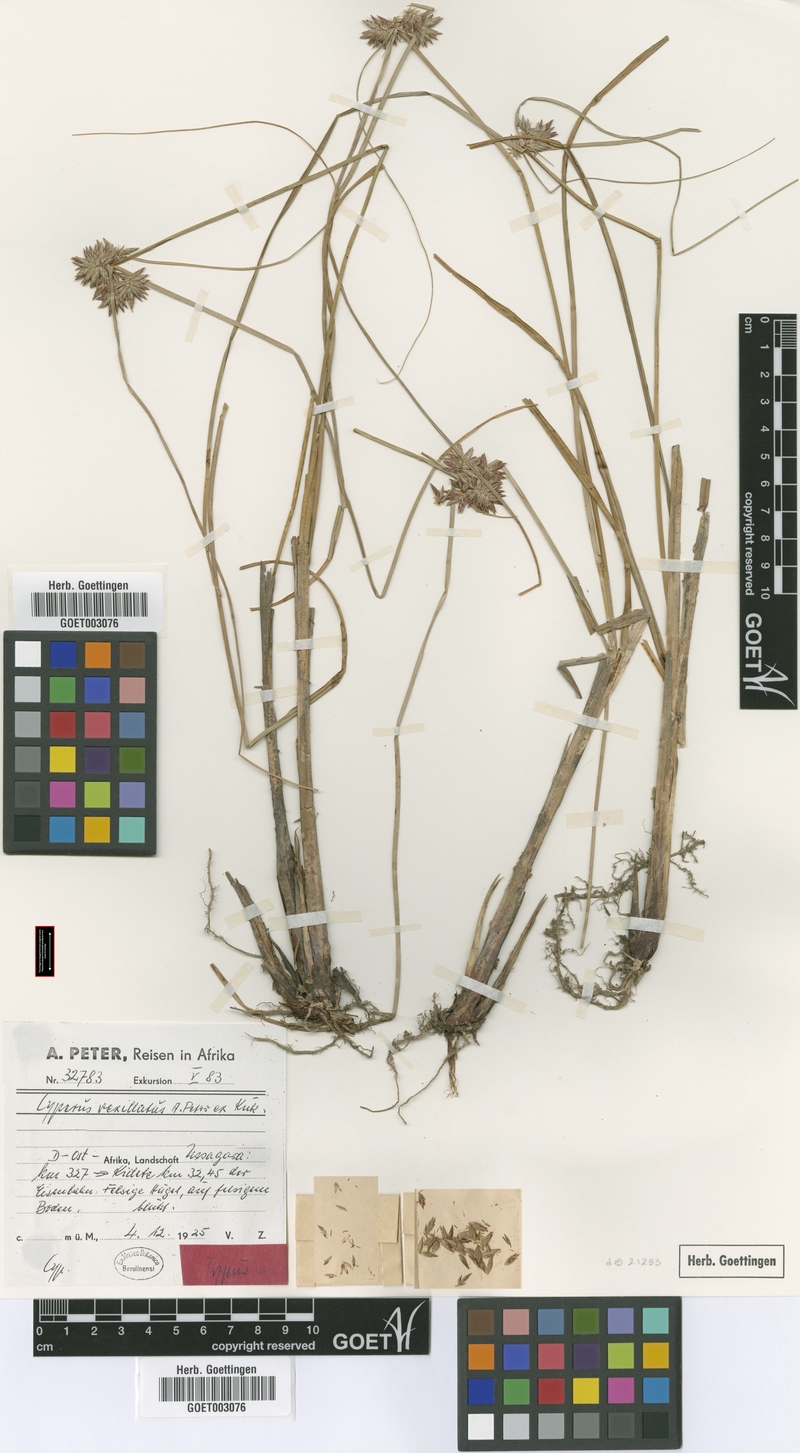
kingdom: Plantae
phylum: Tracheophyta
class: Liliopsida
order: Poales
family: Cyperaceae
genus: Cyperus
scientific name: Cyperus cruentus
